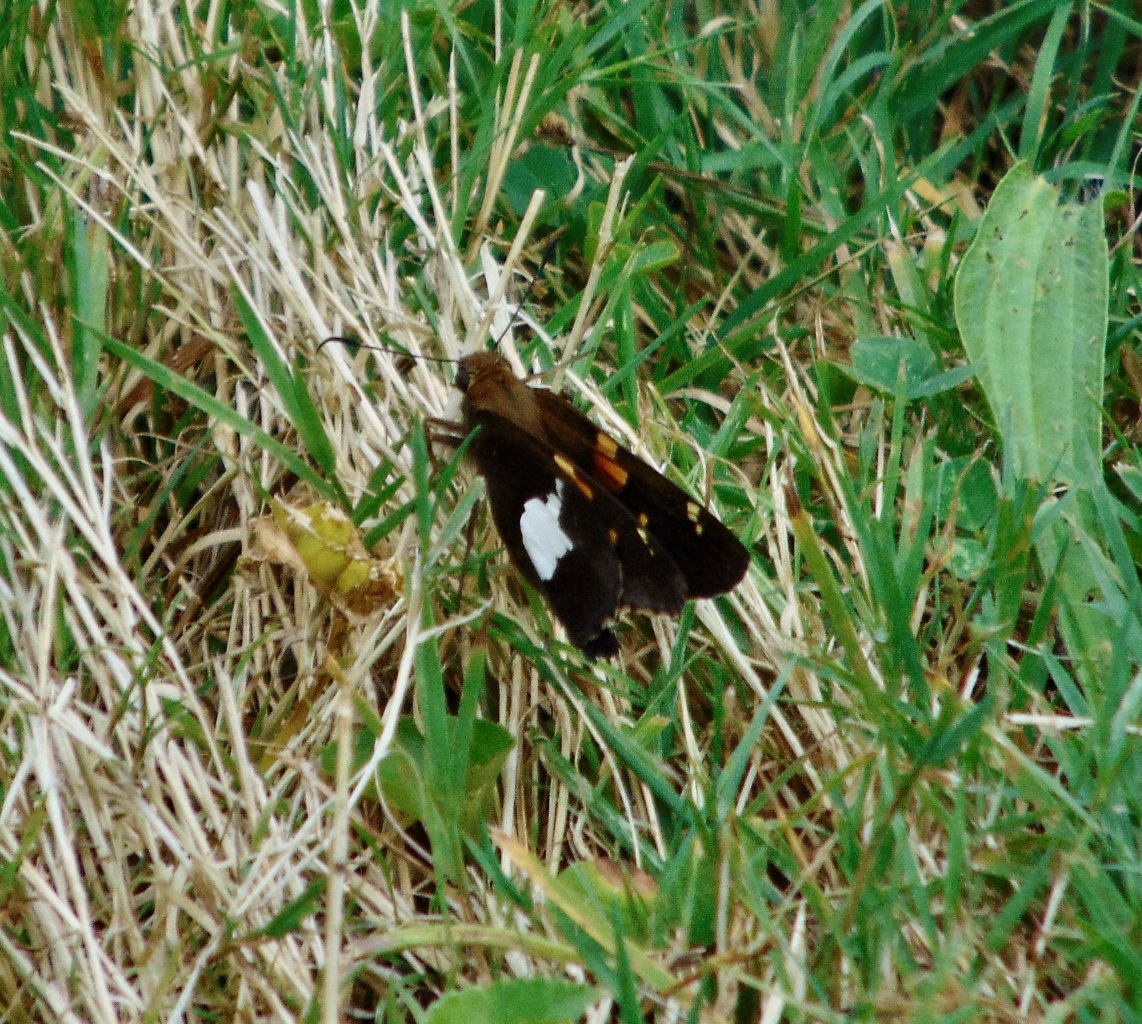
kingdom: Animalia
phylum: Arthropoda
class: Insecta
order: Lepidoptera
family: Hesperiidae
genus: Epargyreus
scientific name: Epargyreus clarus
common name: Silver-spotted Skipper
